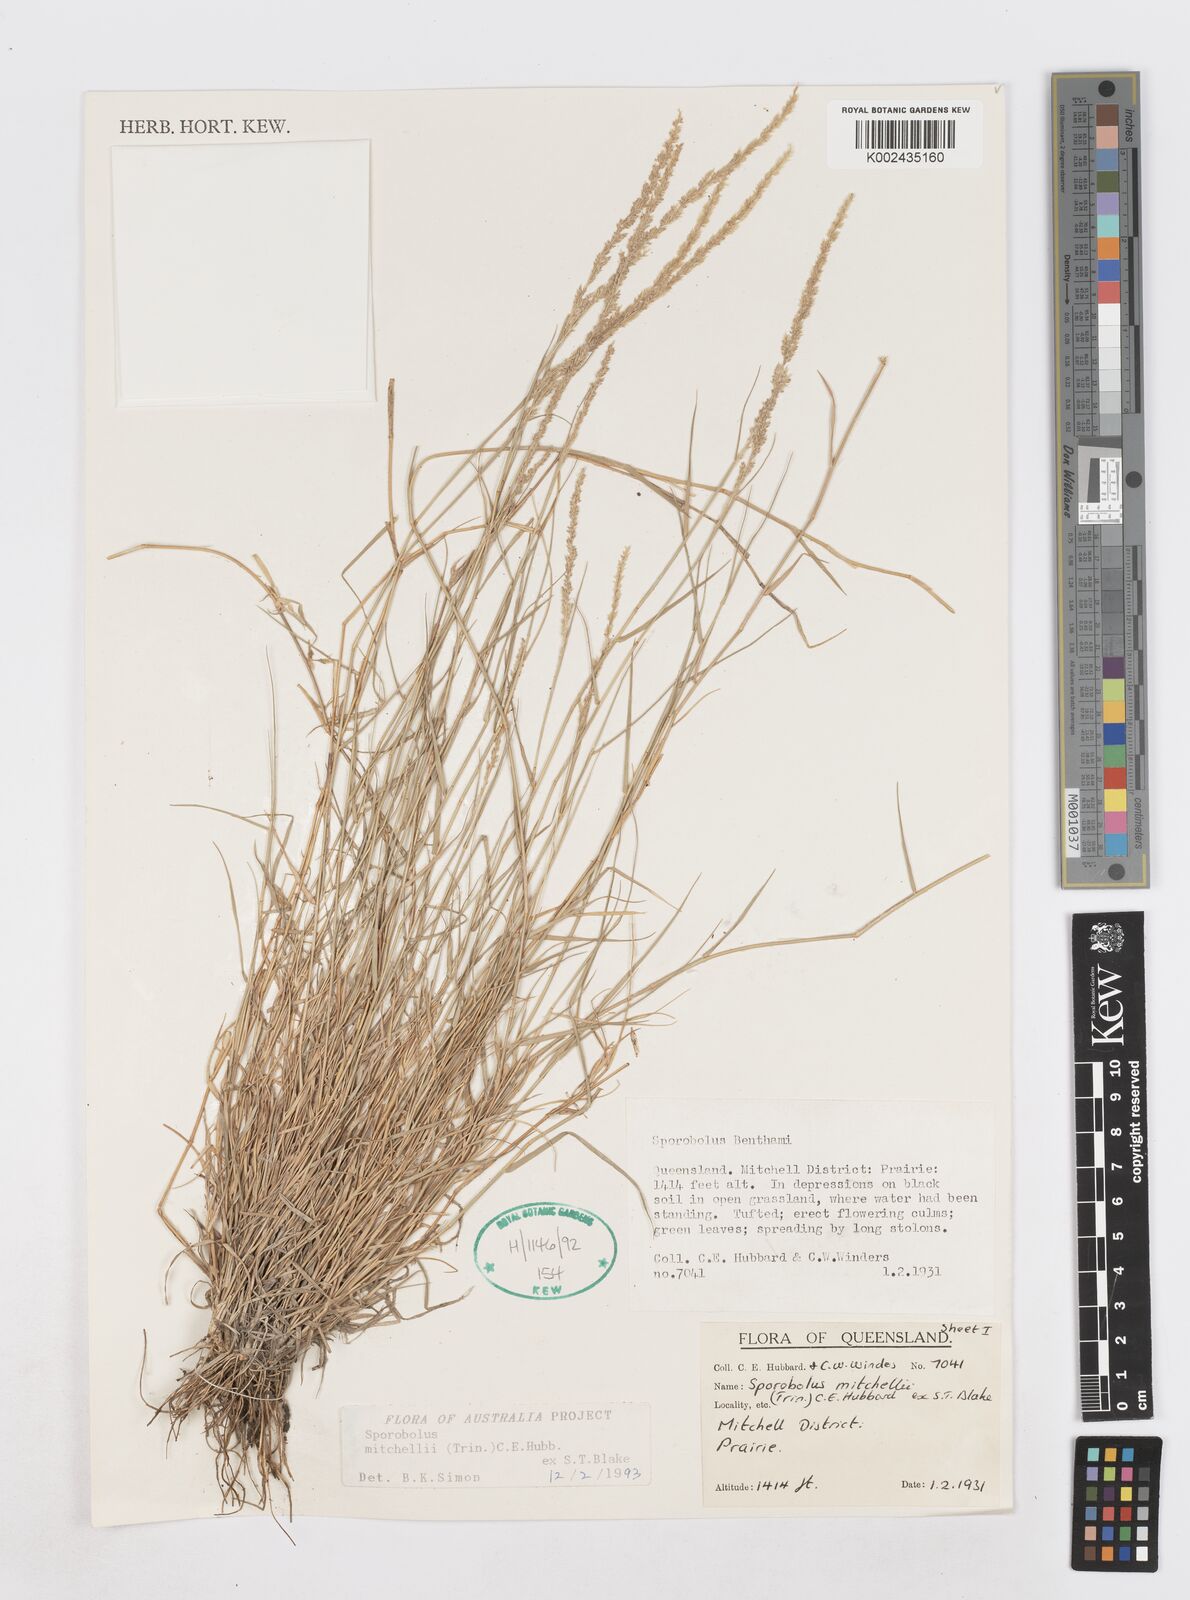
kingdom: Plantae
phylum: Tracheophyta
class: Liliopsida
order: Poales
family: Poaceae
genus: Sporobolus
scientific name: Sporobolus mitchellii
